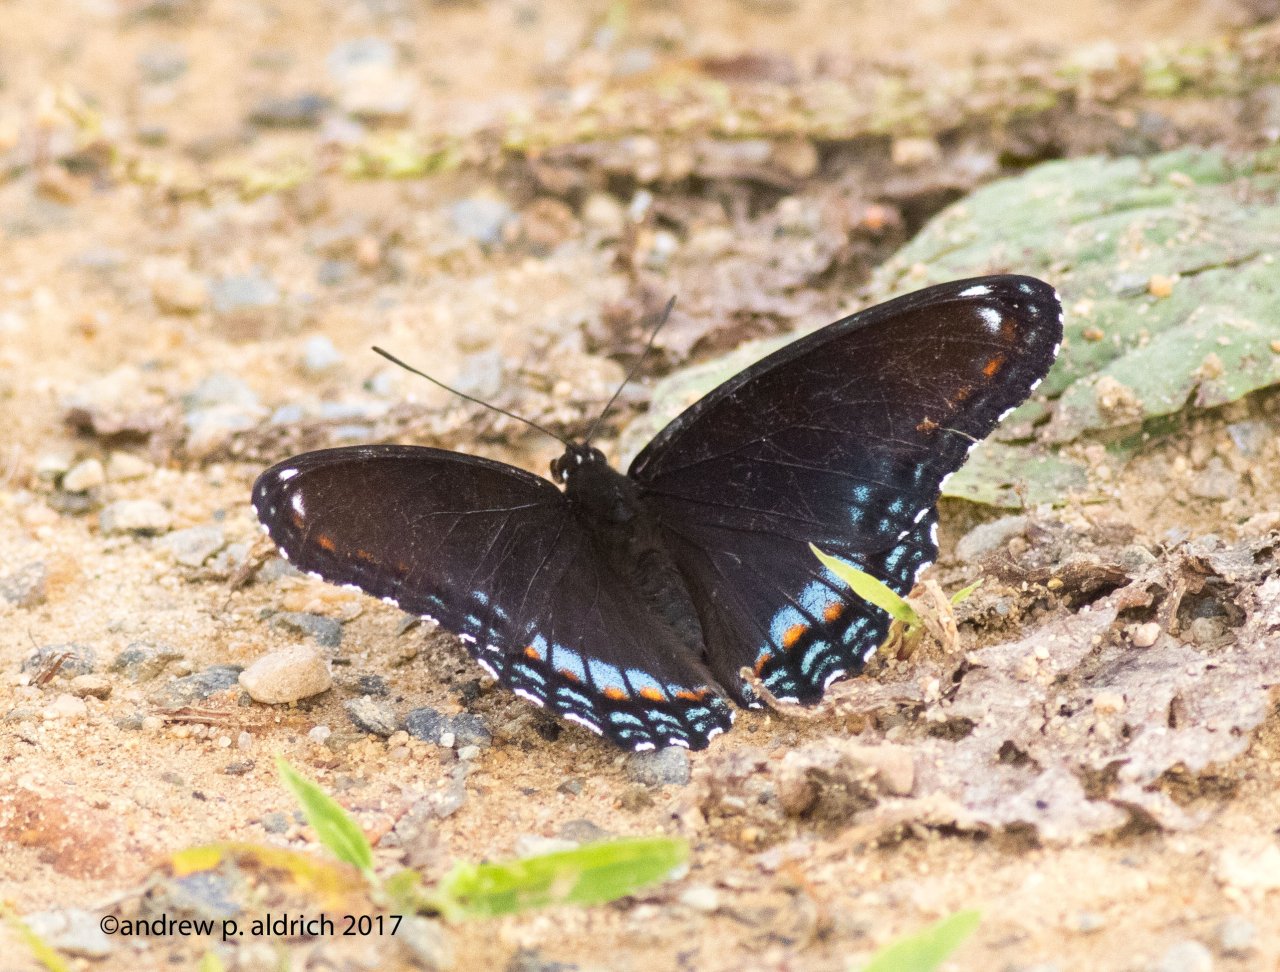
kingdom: Animalia
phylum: Arthropoda
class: Insecta
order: Lepidoptera
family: Nymphalidae
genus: Limenitis
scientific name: Limenitis astyanax
